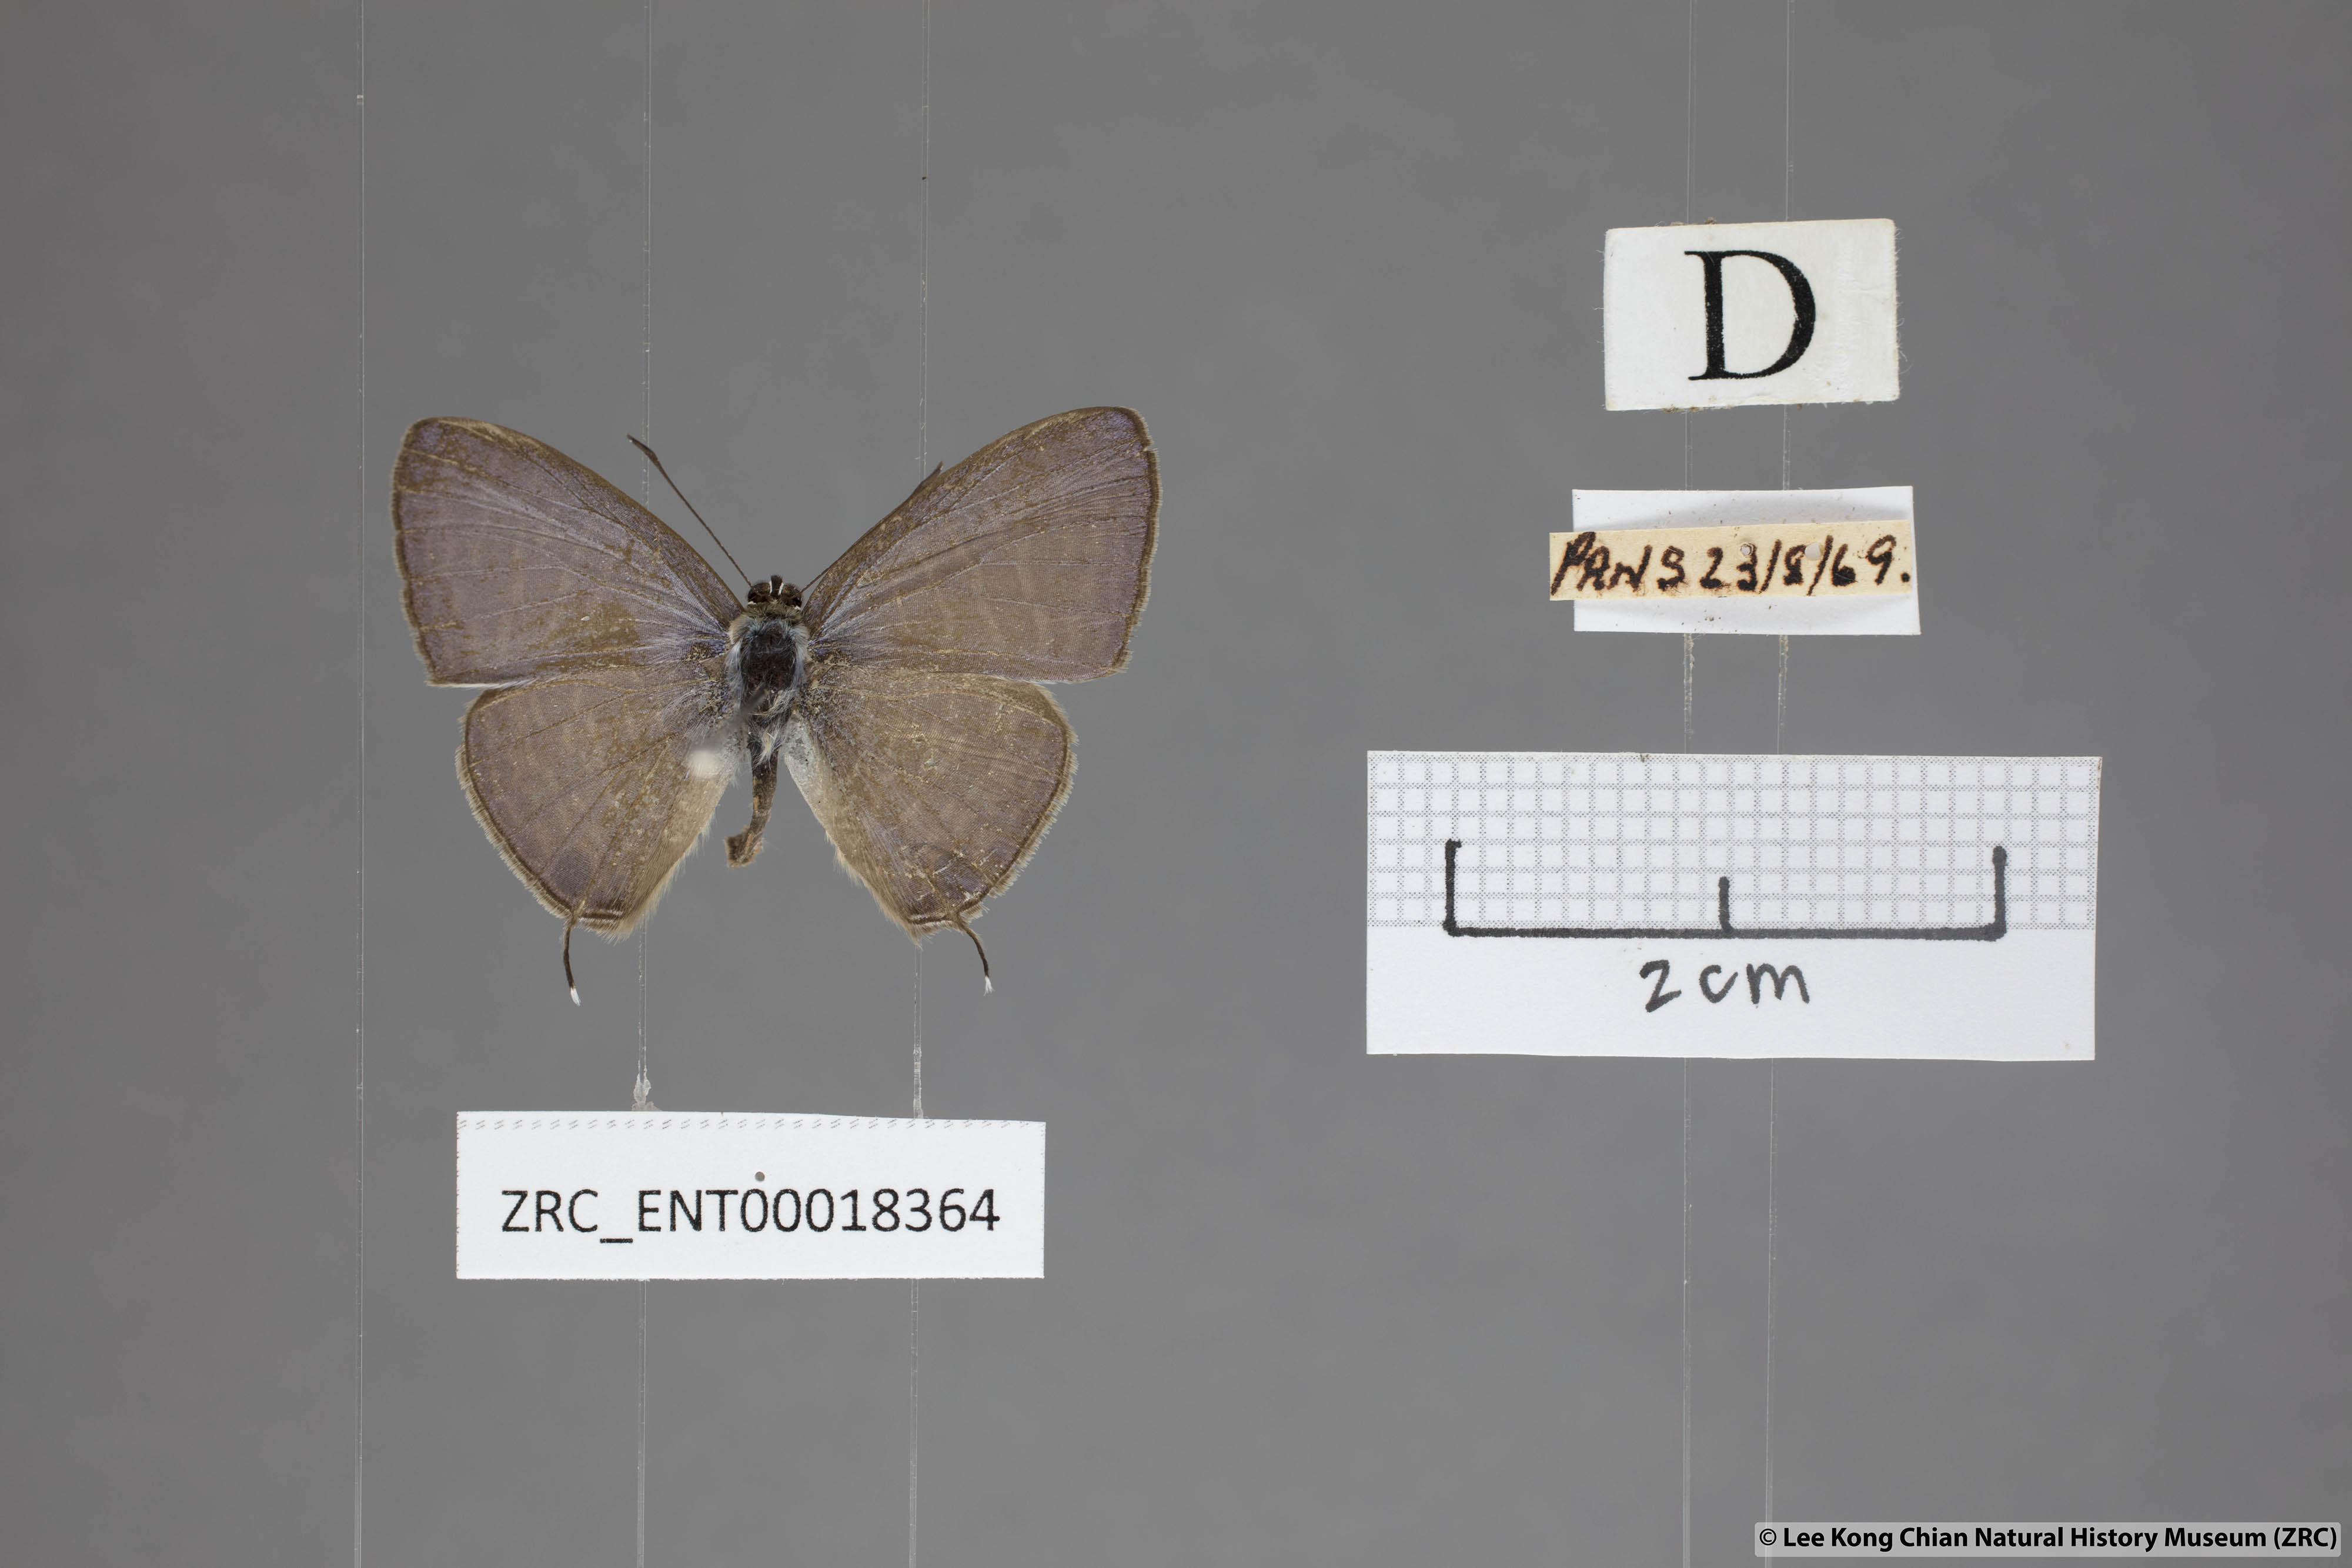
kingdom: Animalia
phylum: Arthropoda
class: Insecta
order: Lepidoptera
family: Lycaenidae
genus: Nacaduba
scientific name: Nacaduba kurava
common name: Transparent 6-line blue
